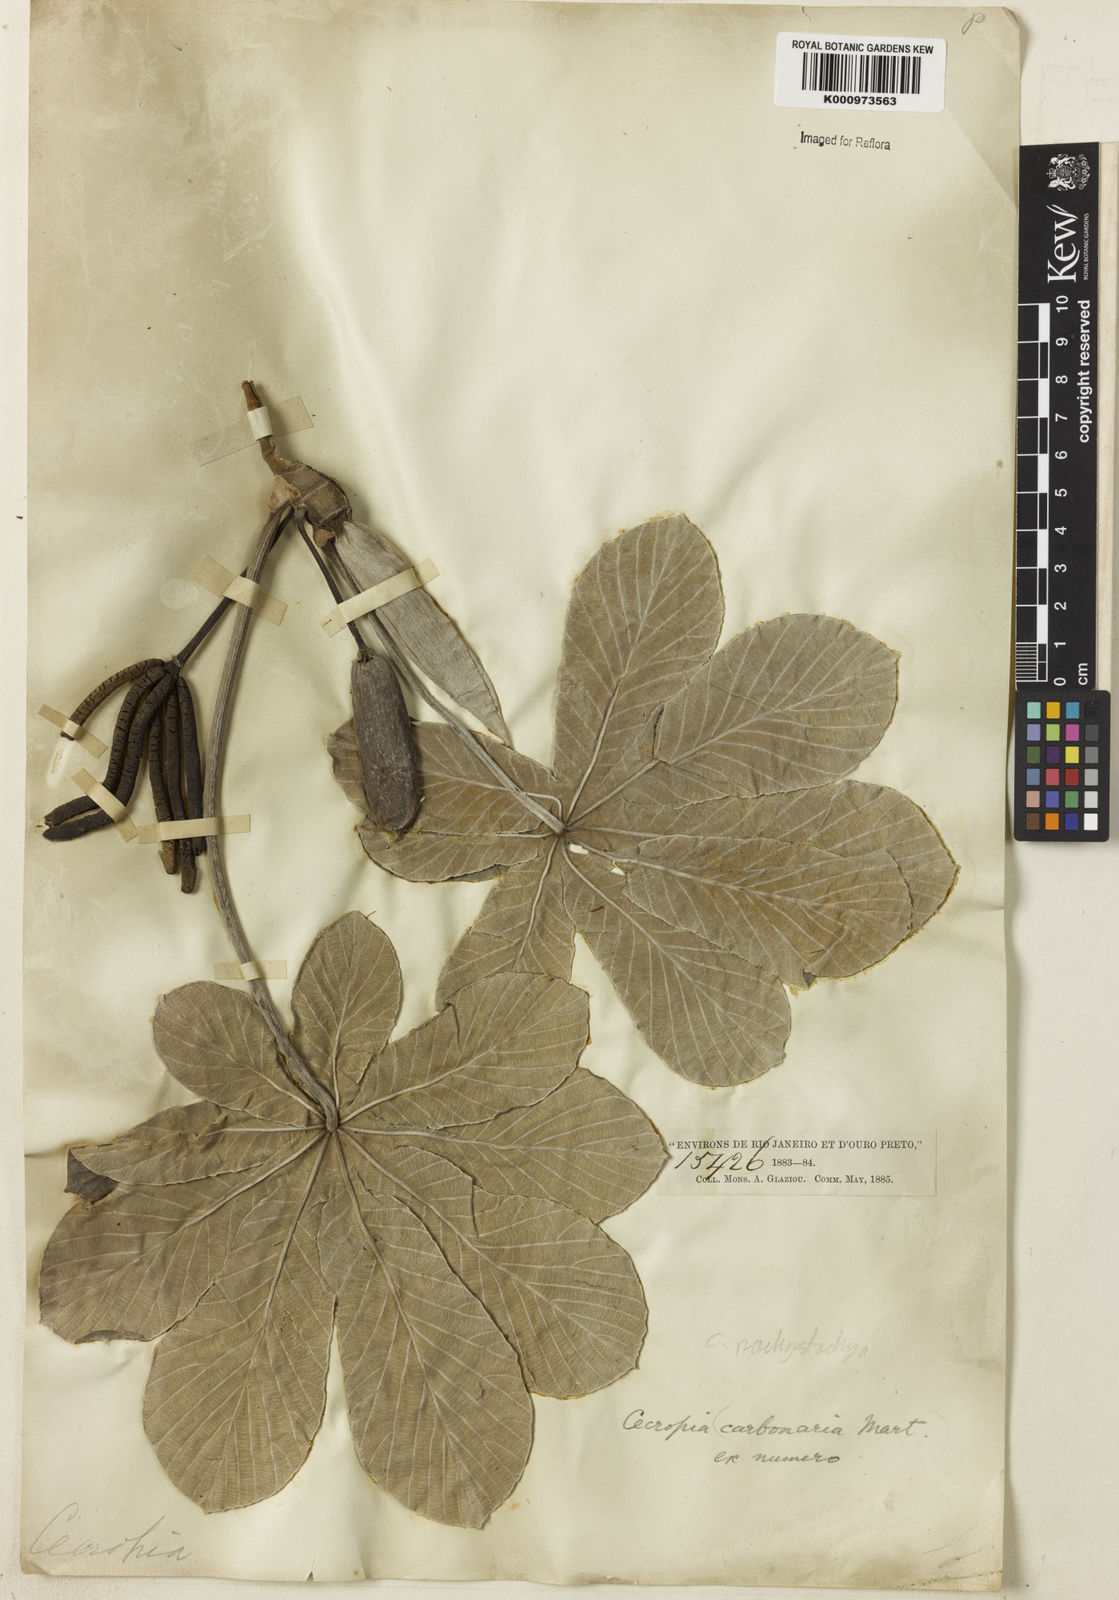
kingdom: Plantae
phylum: Tracheophyta
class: Magnoliopsida
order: Rosales
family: Urticaceae
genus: Cecropia
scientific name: Cecropia
